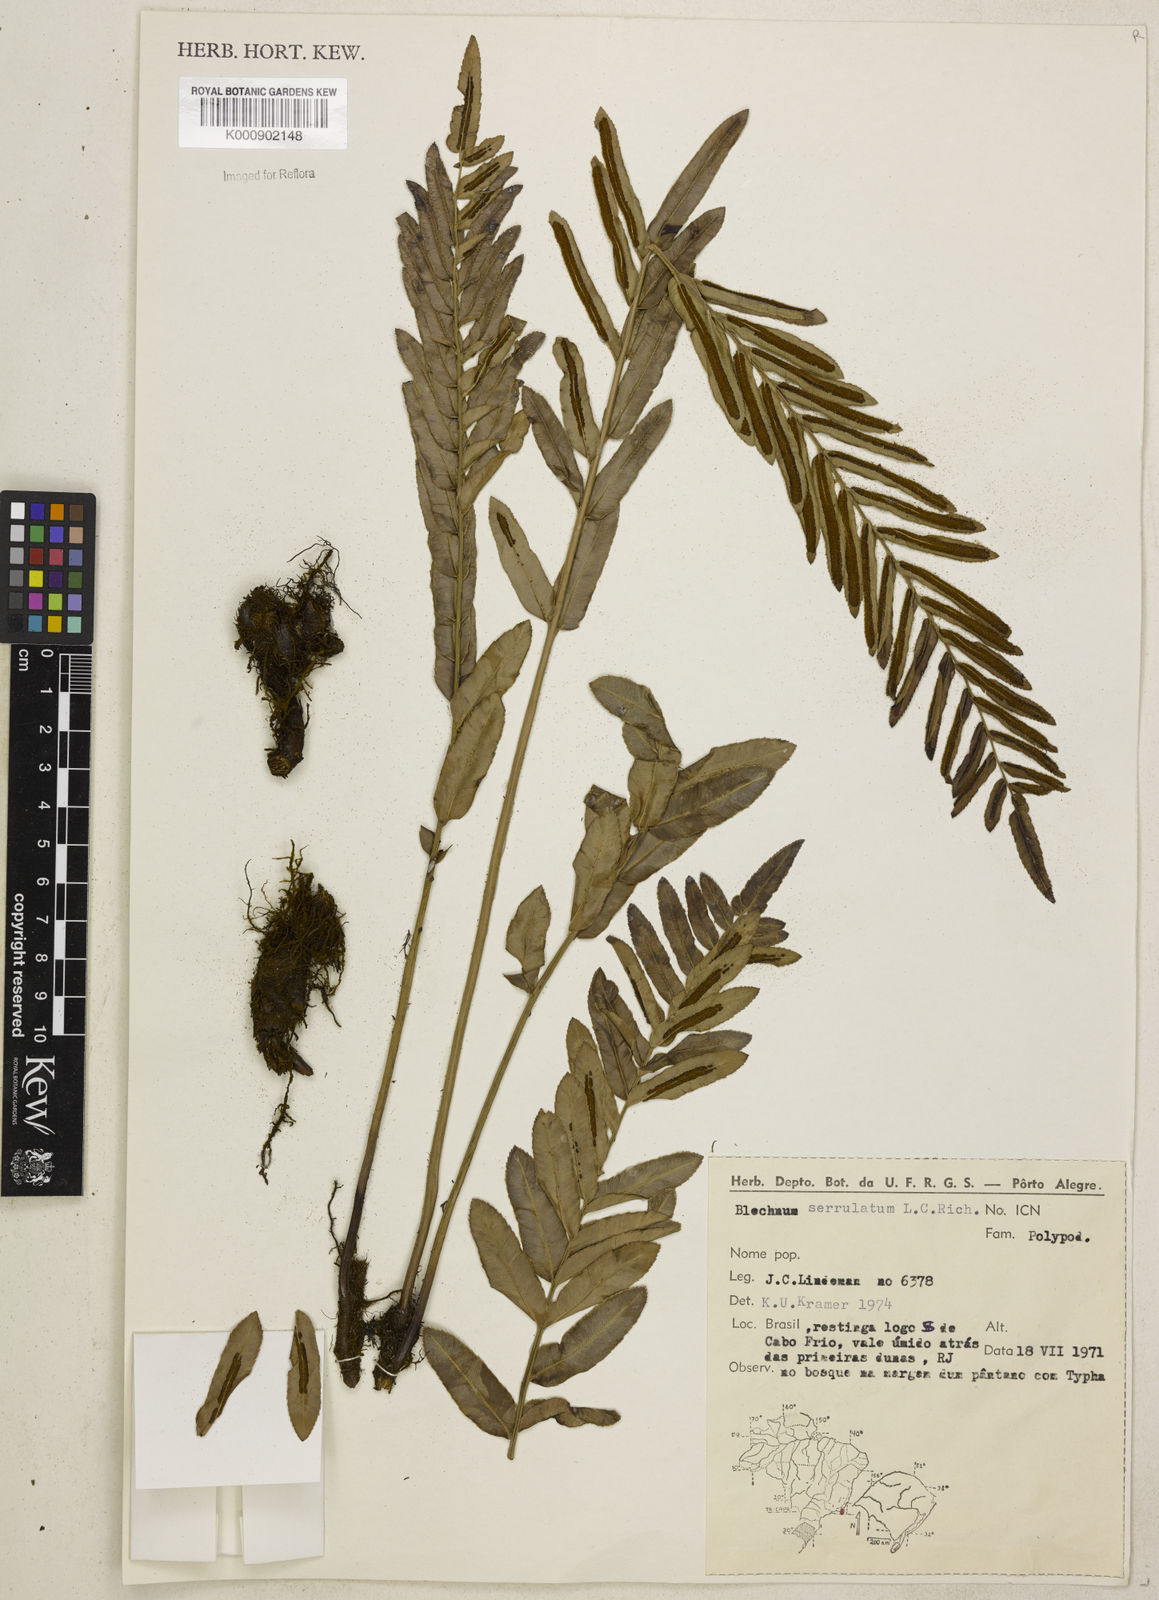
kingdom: Plantae
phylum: Tracheophyta
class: Polypodiopsida
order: Polypodiales
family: Blechnaceae
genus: Telmatoblechnum
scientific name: Telmatoblechnum serrulatum
